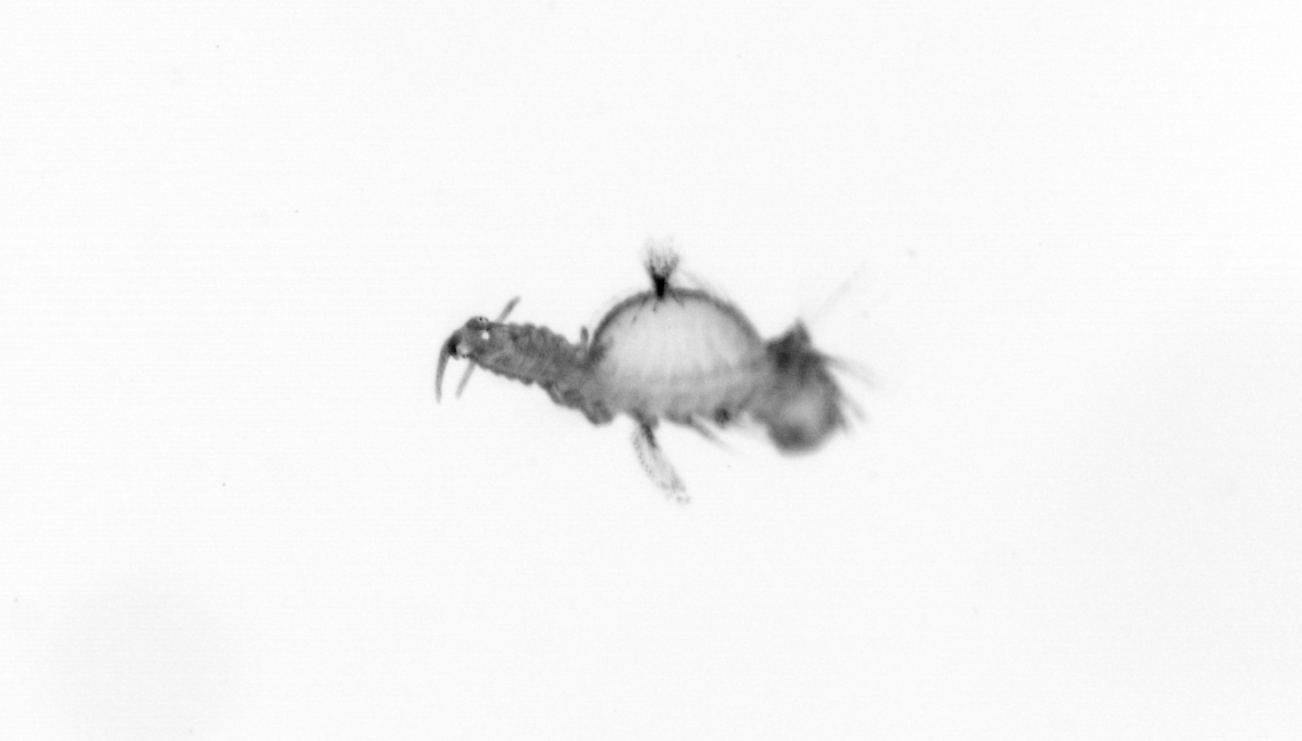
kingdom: Animalia
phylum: Annelida
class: Polychaeta
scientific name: Polychaeta
